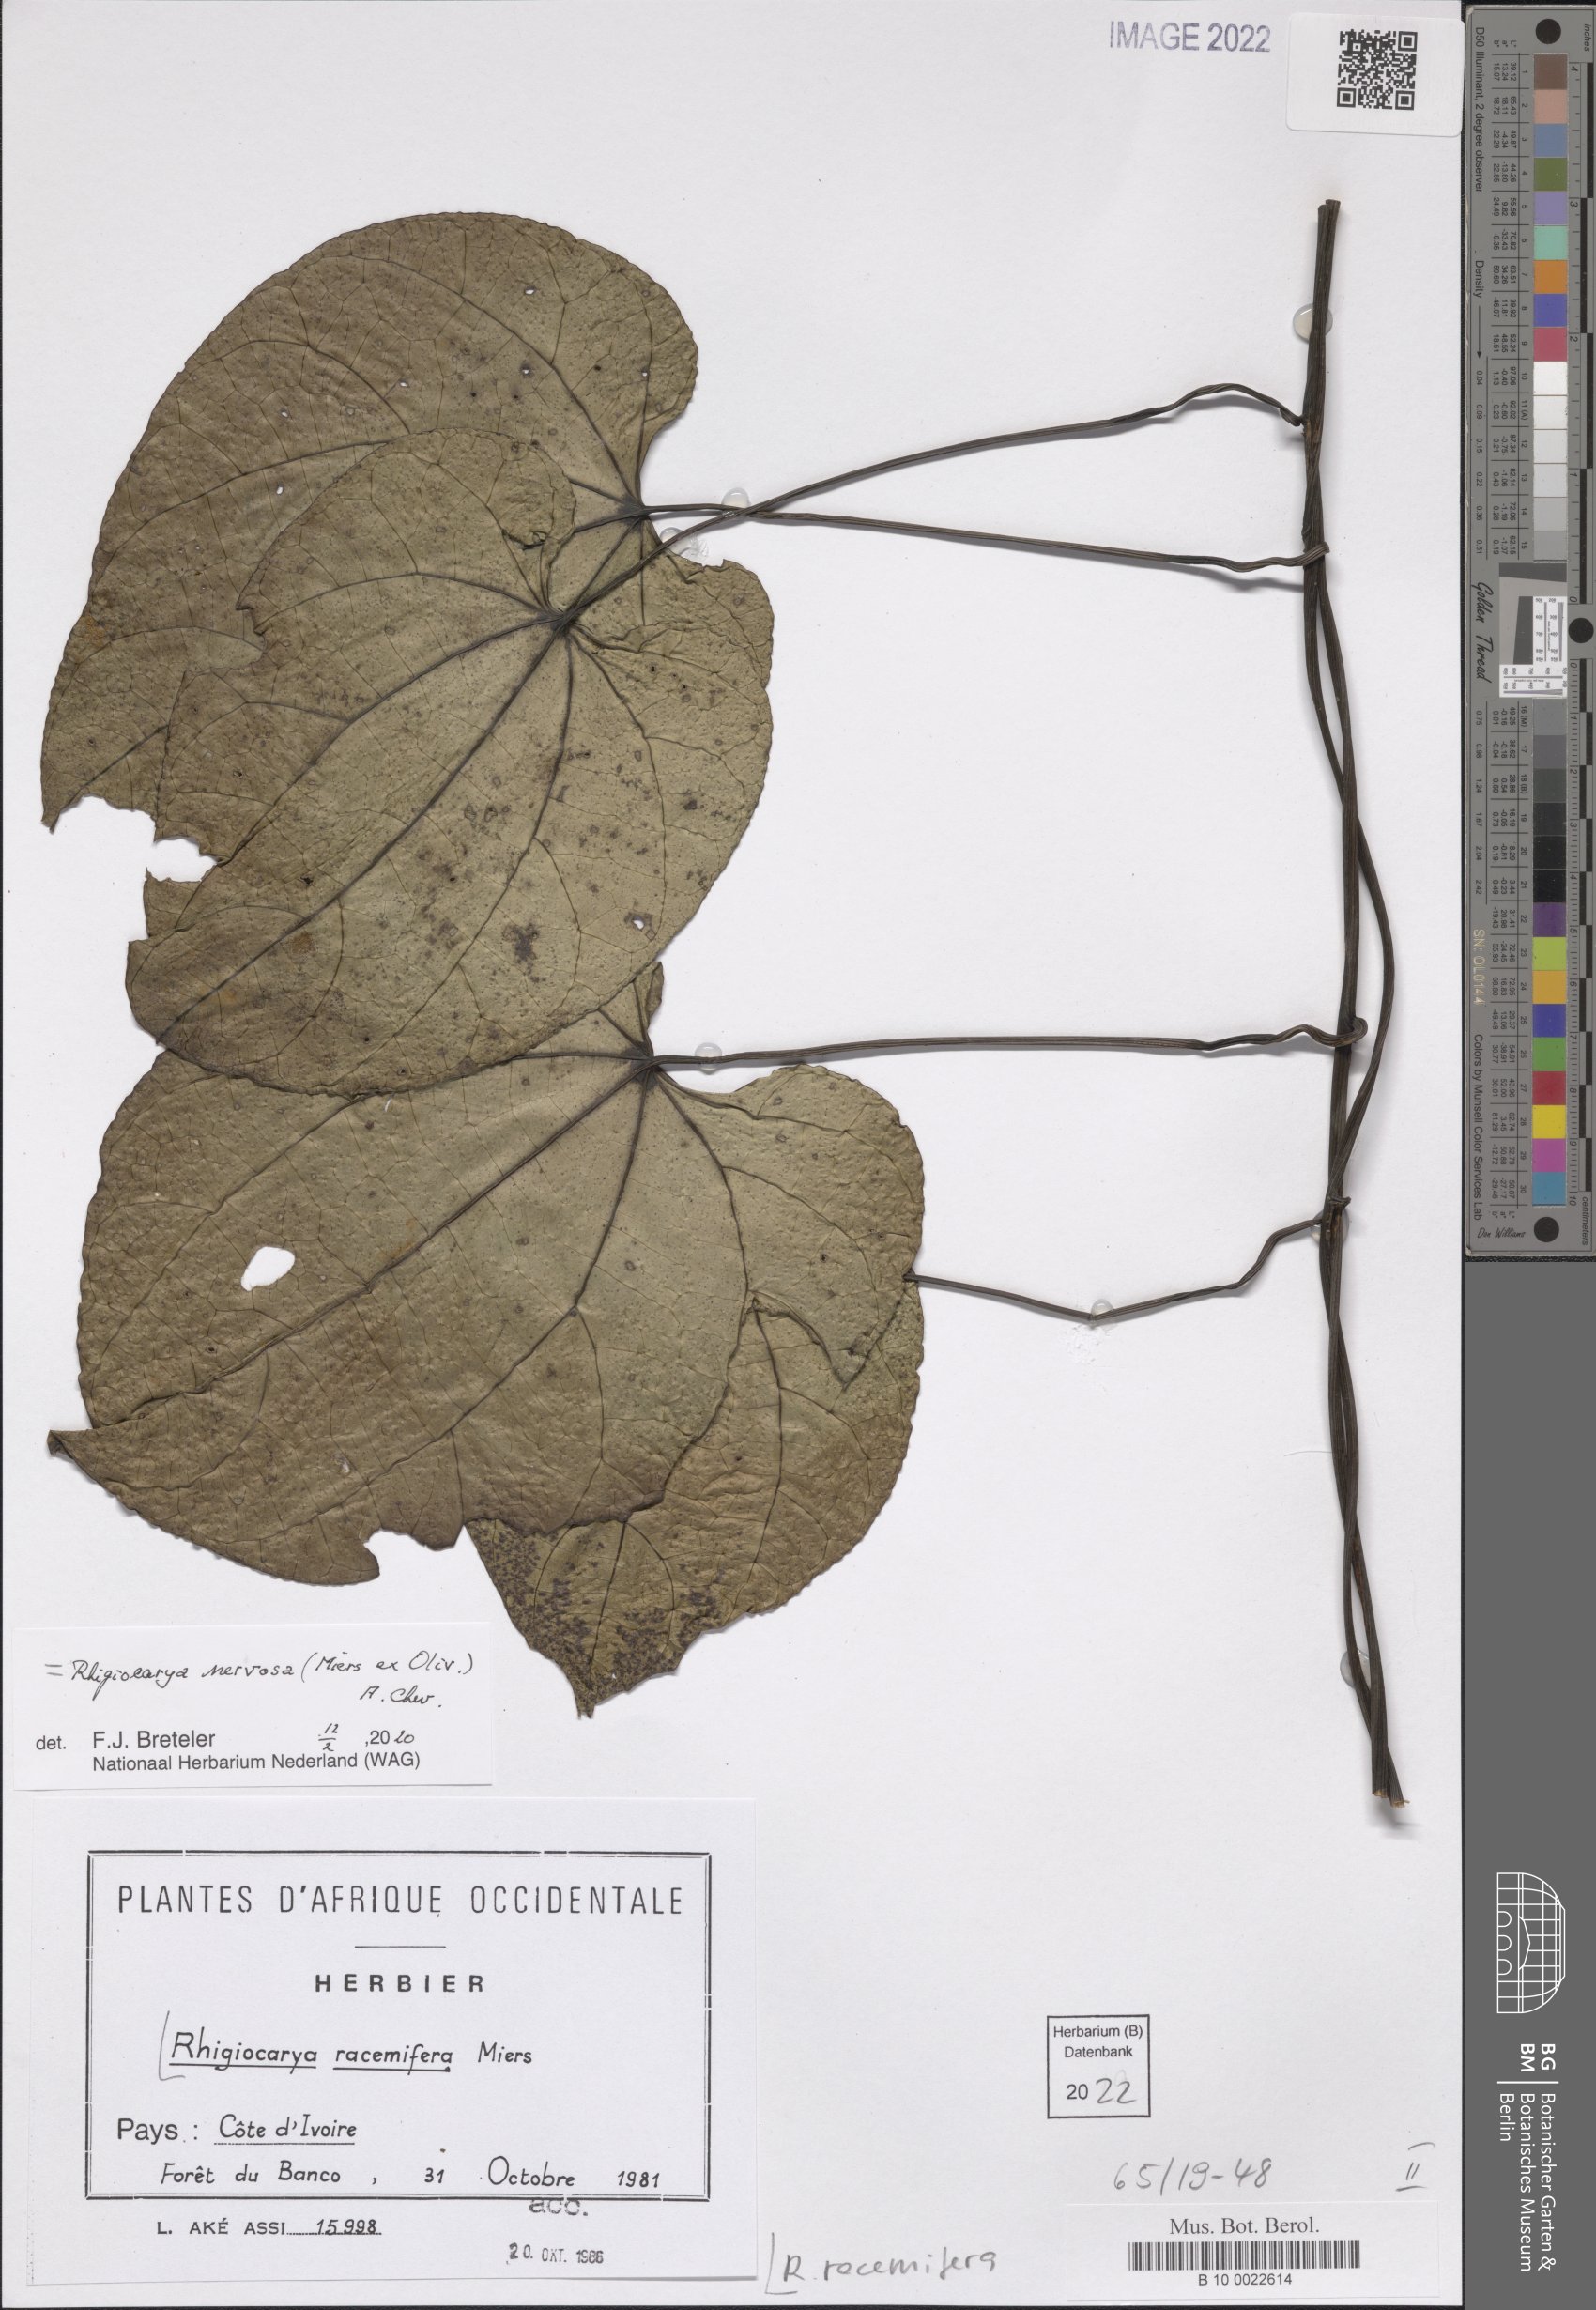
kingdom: Plantae
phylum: Tracheophyta
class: Magnoliopsida
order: Ranunculales
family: Menispermaceae
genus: Rhigiocarya
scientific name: Rhigiocarya racemifera
